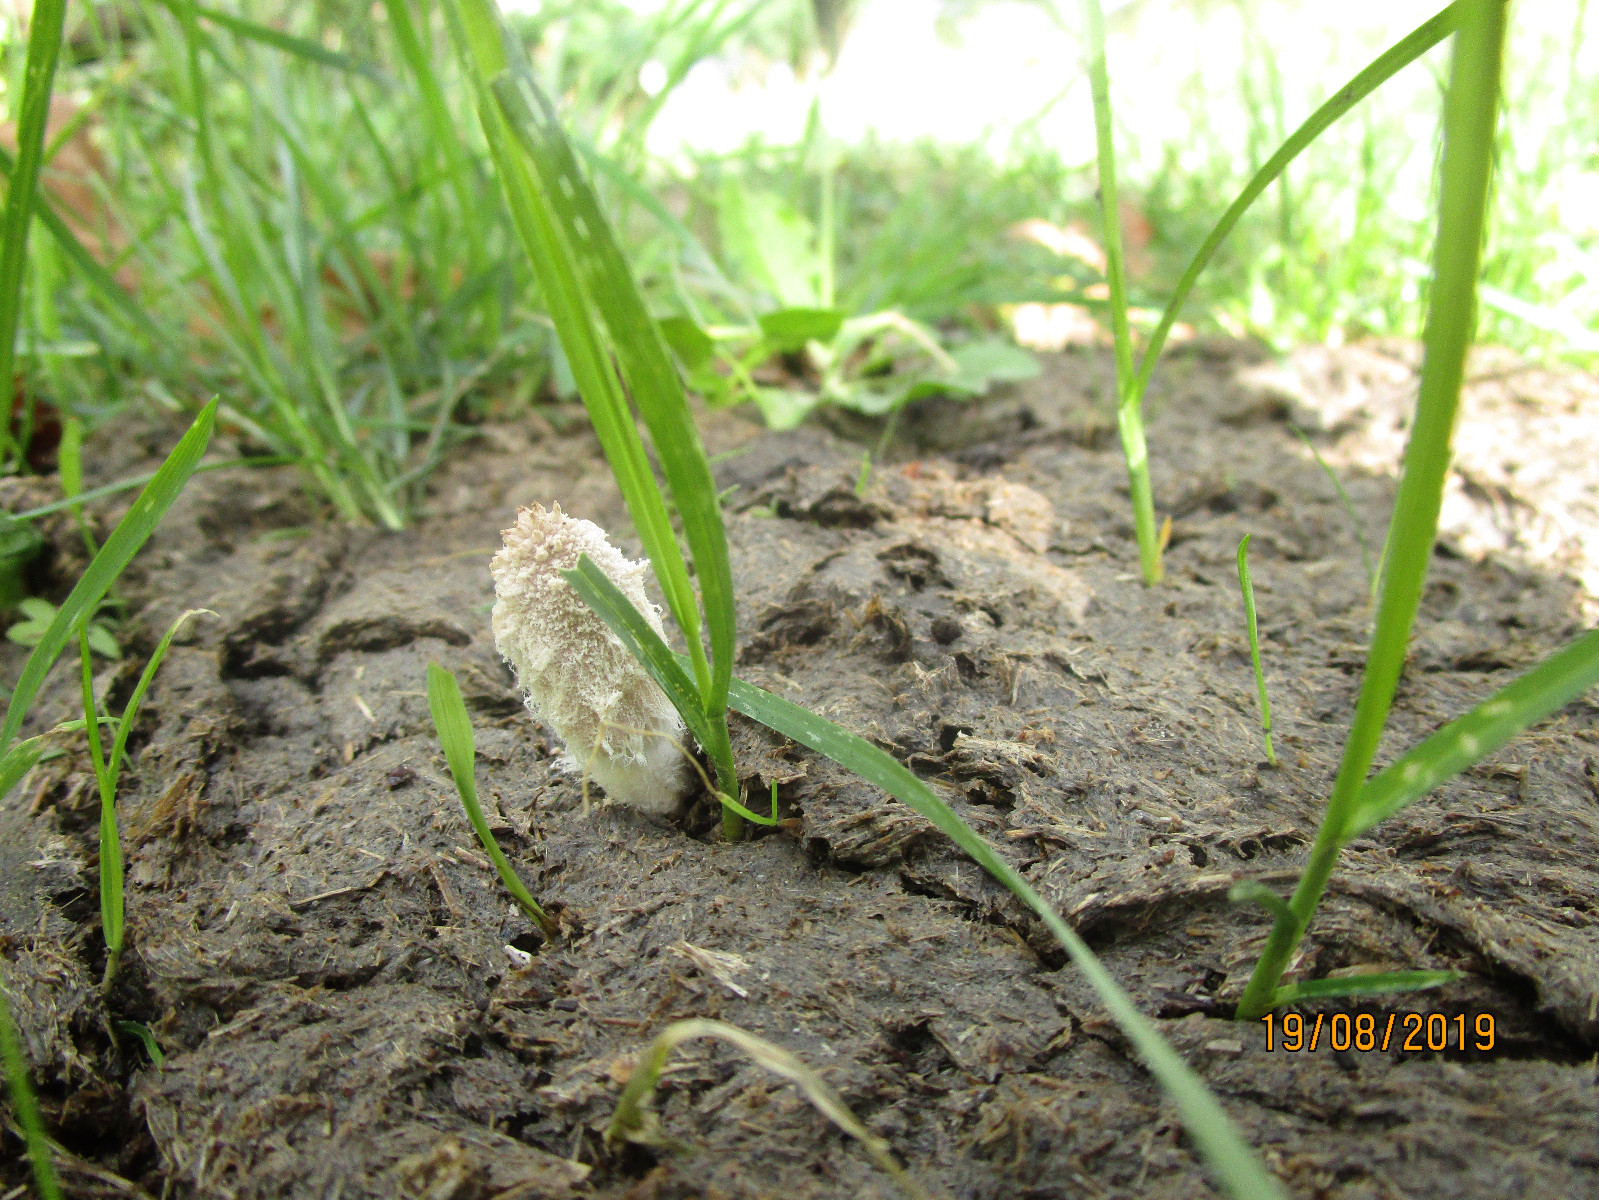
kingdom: Fungi
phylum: Basidiomycota
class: Agaricomycetes
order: Agaricales
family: Psathyrellaceae
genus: Coprinopsis
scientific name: Coprinopsis
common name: blækhat
